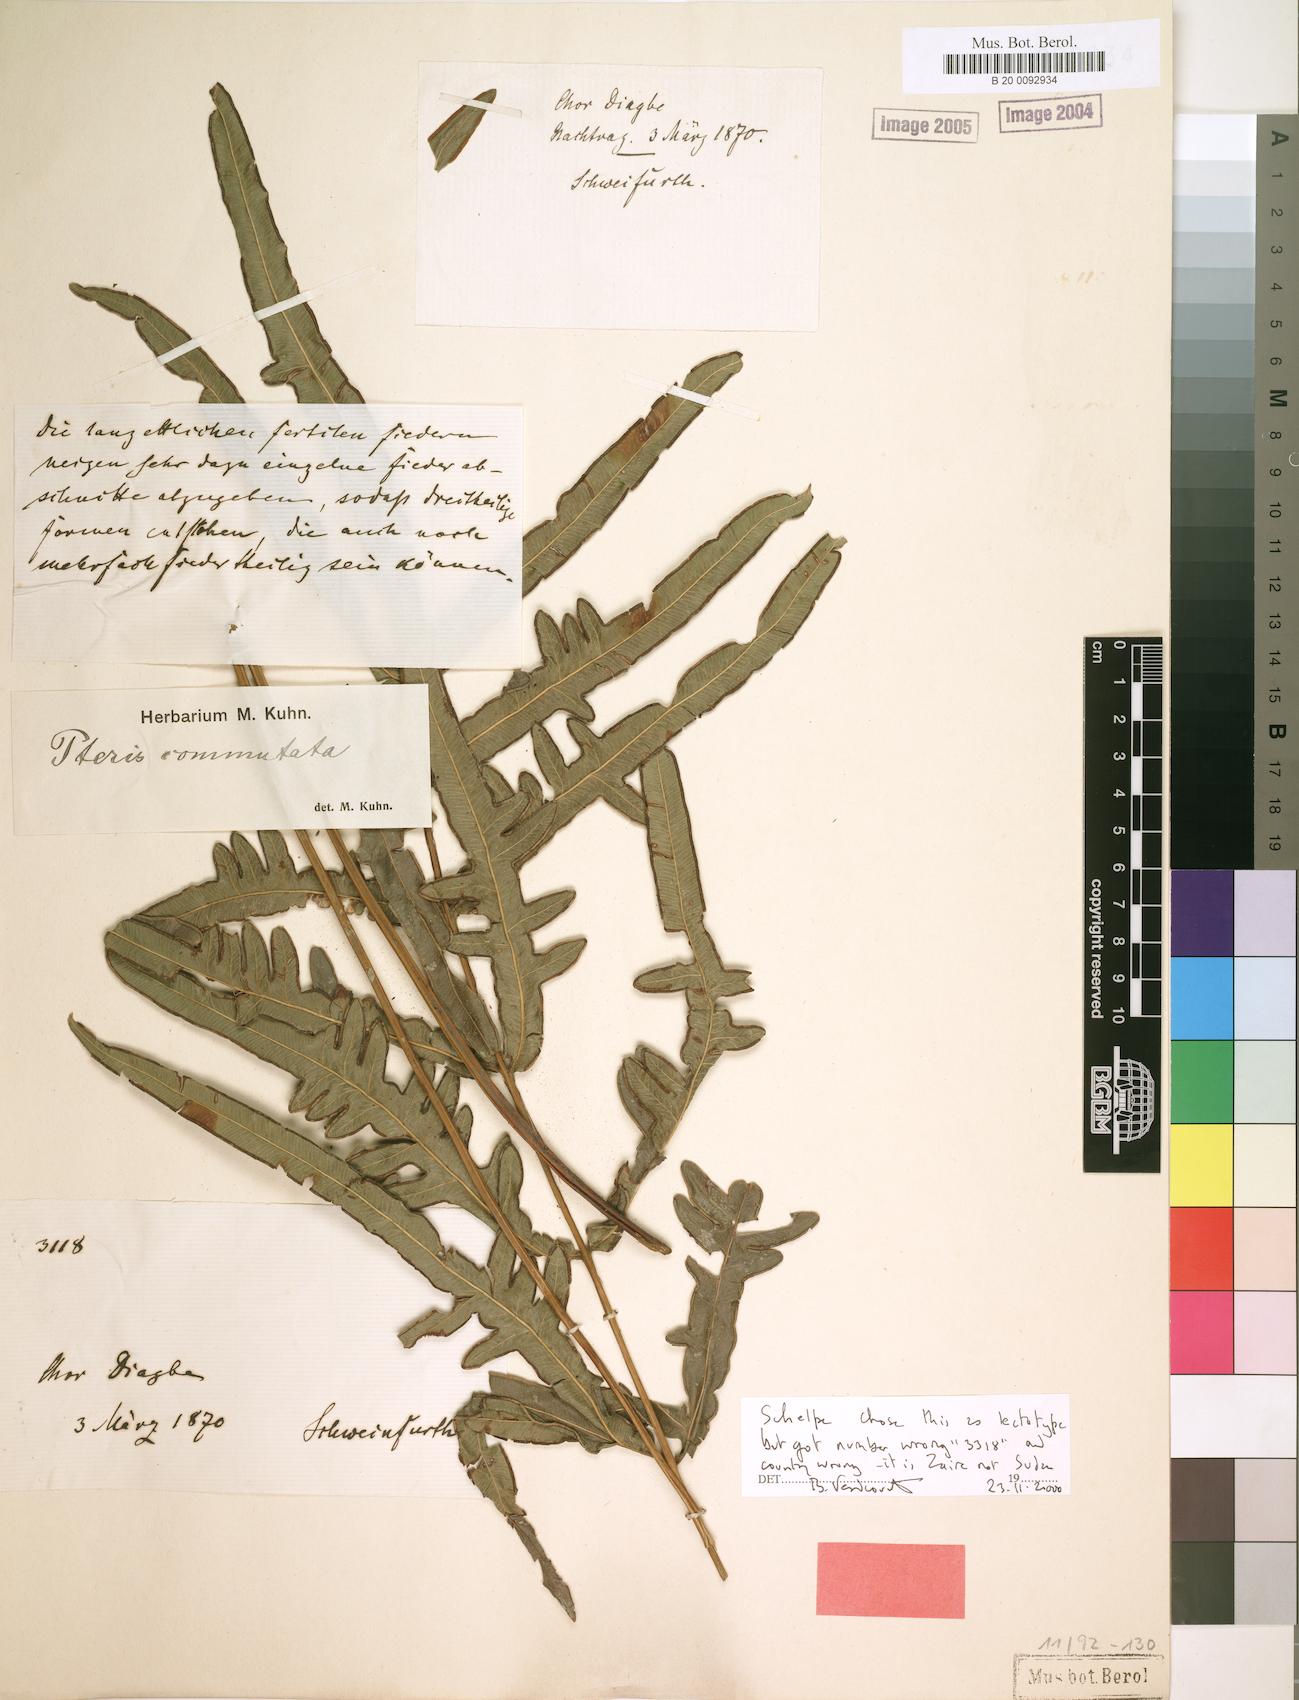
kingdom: Plantae
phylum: Tracheophyta
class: Polypodiopsida
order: Polypodiales
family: Pteridaceae
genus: Pteris
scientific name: Pteris commutata
